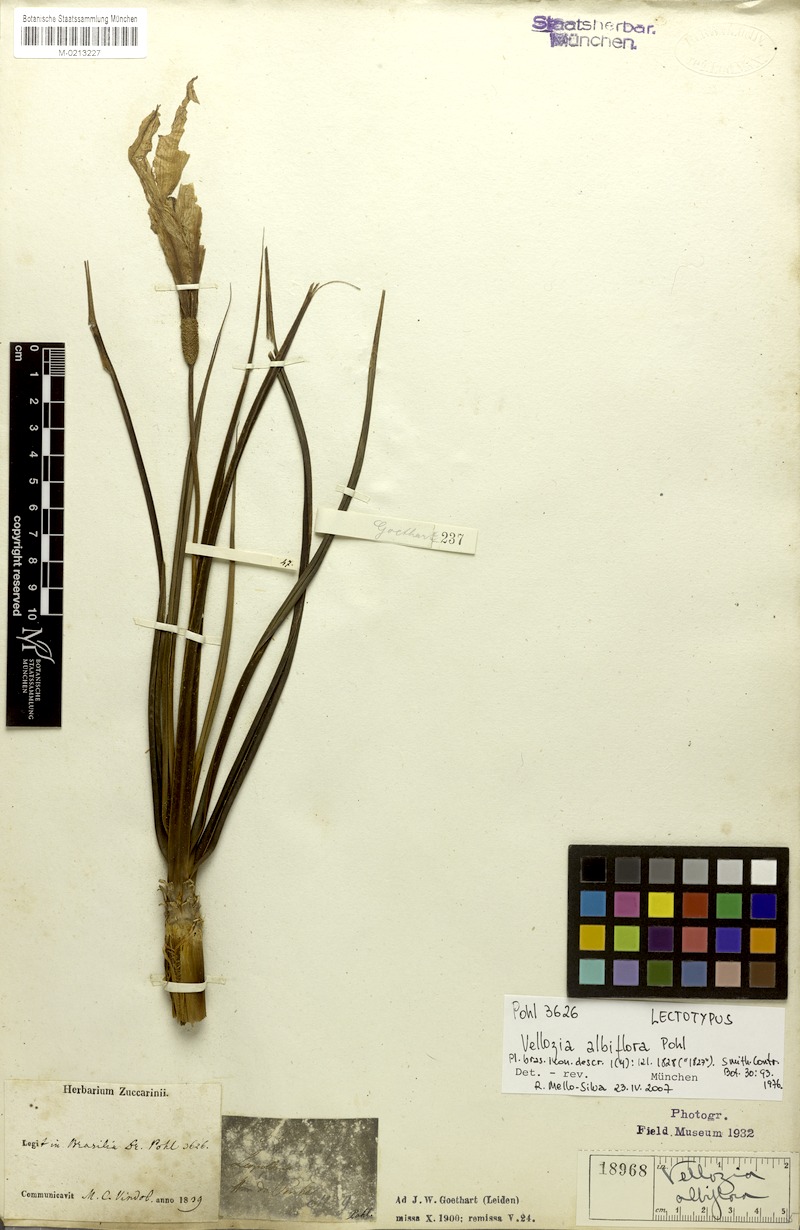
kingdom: Plantae
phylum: Tracheophyta
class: Liliopsida
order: Pandanales
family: Velloziaceae
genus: Vellozia
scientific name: Vellozia albiflora
